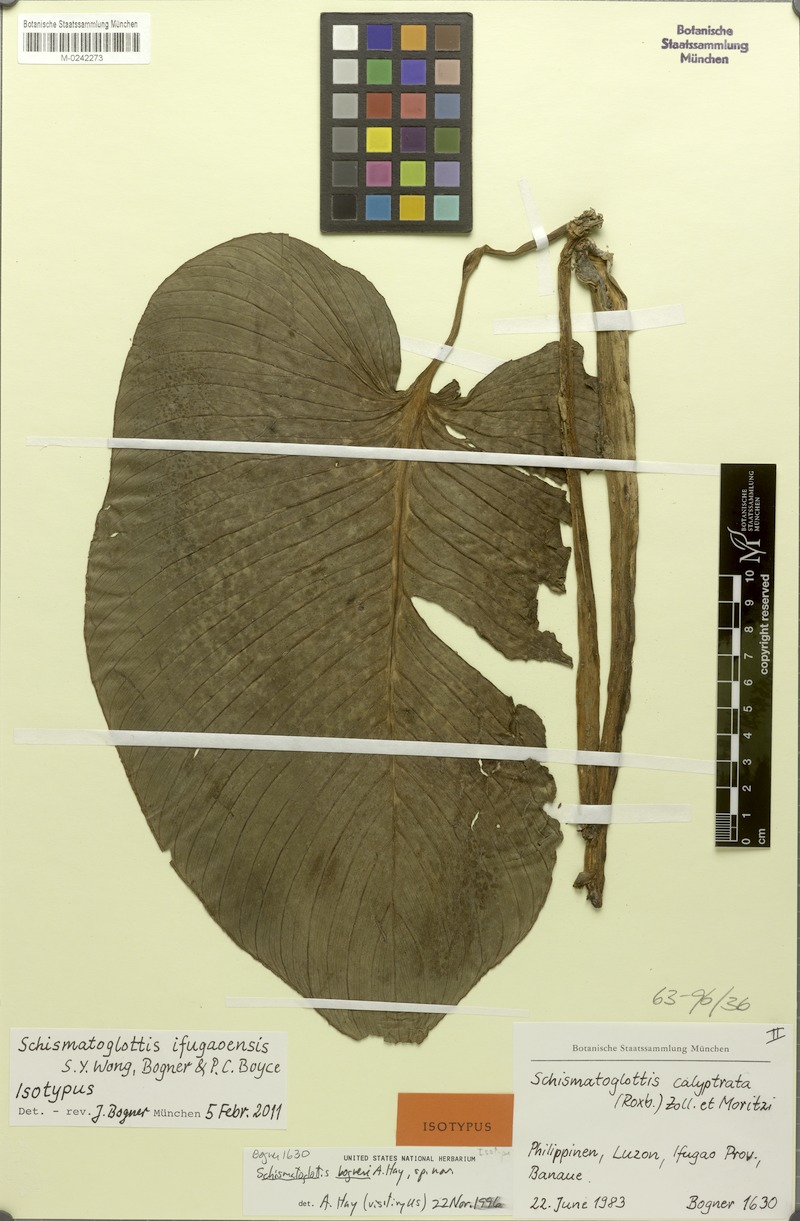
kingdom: Plantae
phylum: Tracheophyta
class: Liliopsida
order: Alismatales
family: Araceae
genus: Schismatoglottis
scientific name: Schismatoglottis ifugaoensis
